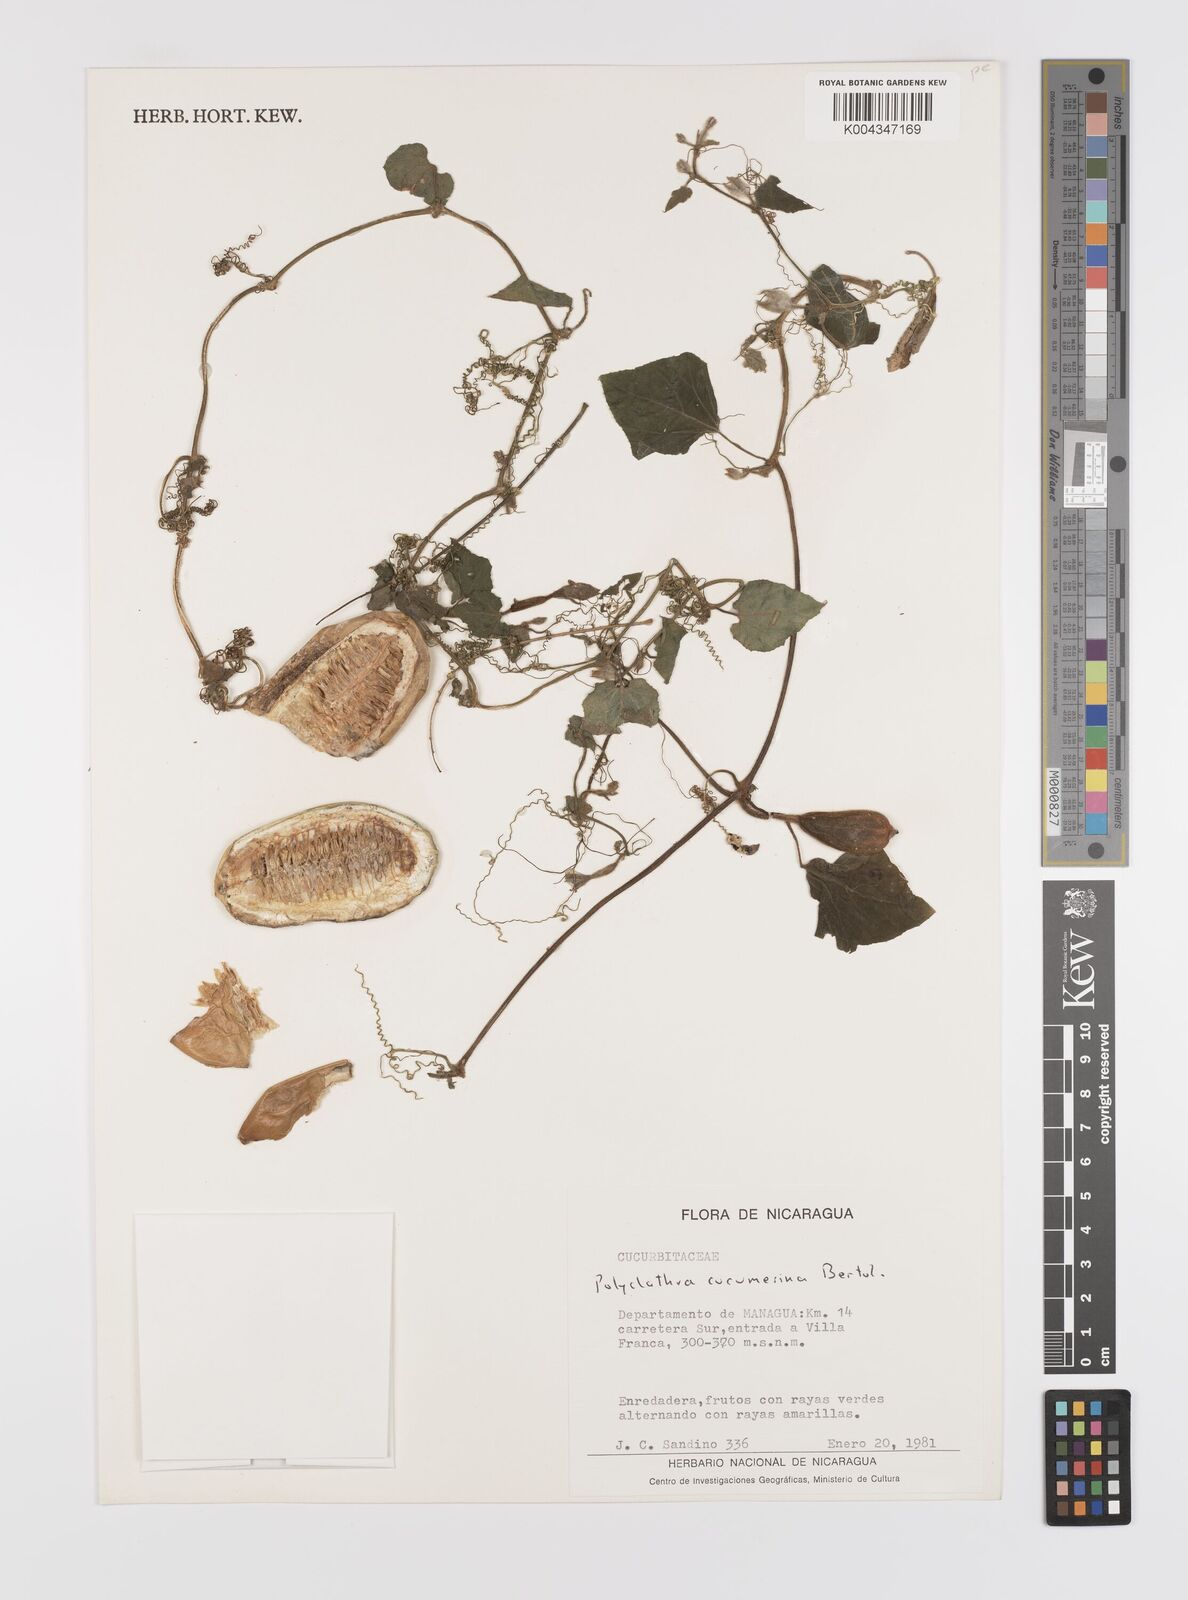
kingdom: Plantae
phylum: Tracheophyta
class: Magnoliopsida
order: Cucurbitales
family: Cucurbitaceae
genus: Polyclathra
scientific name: Polyclathra cucumerina
